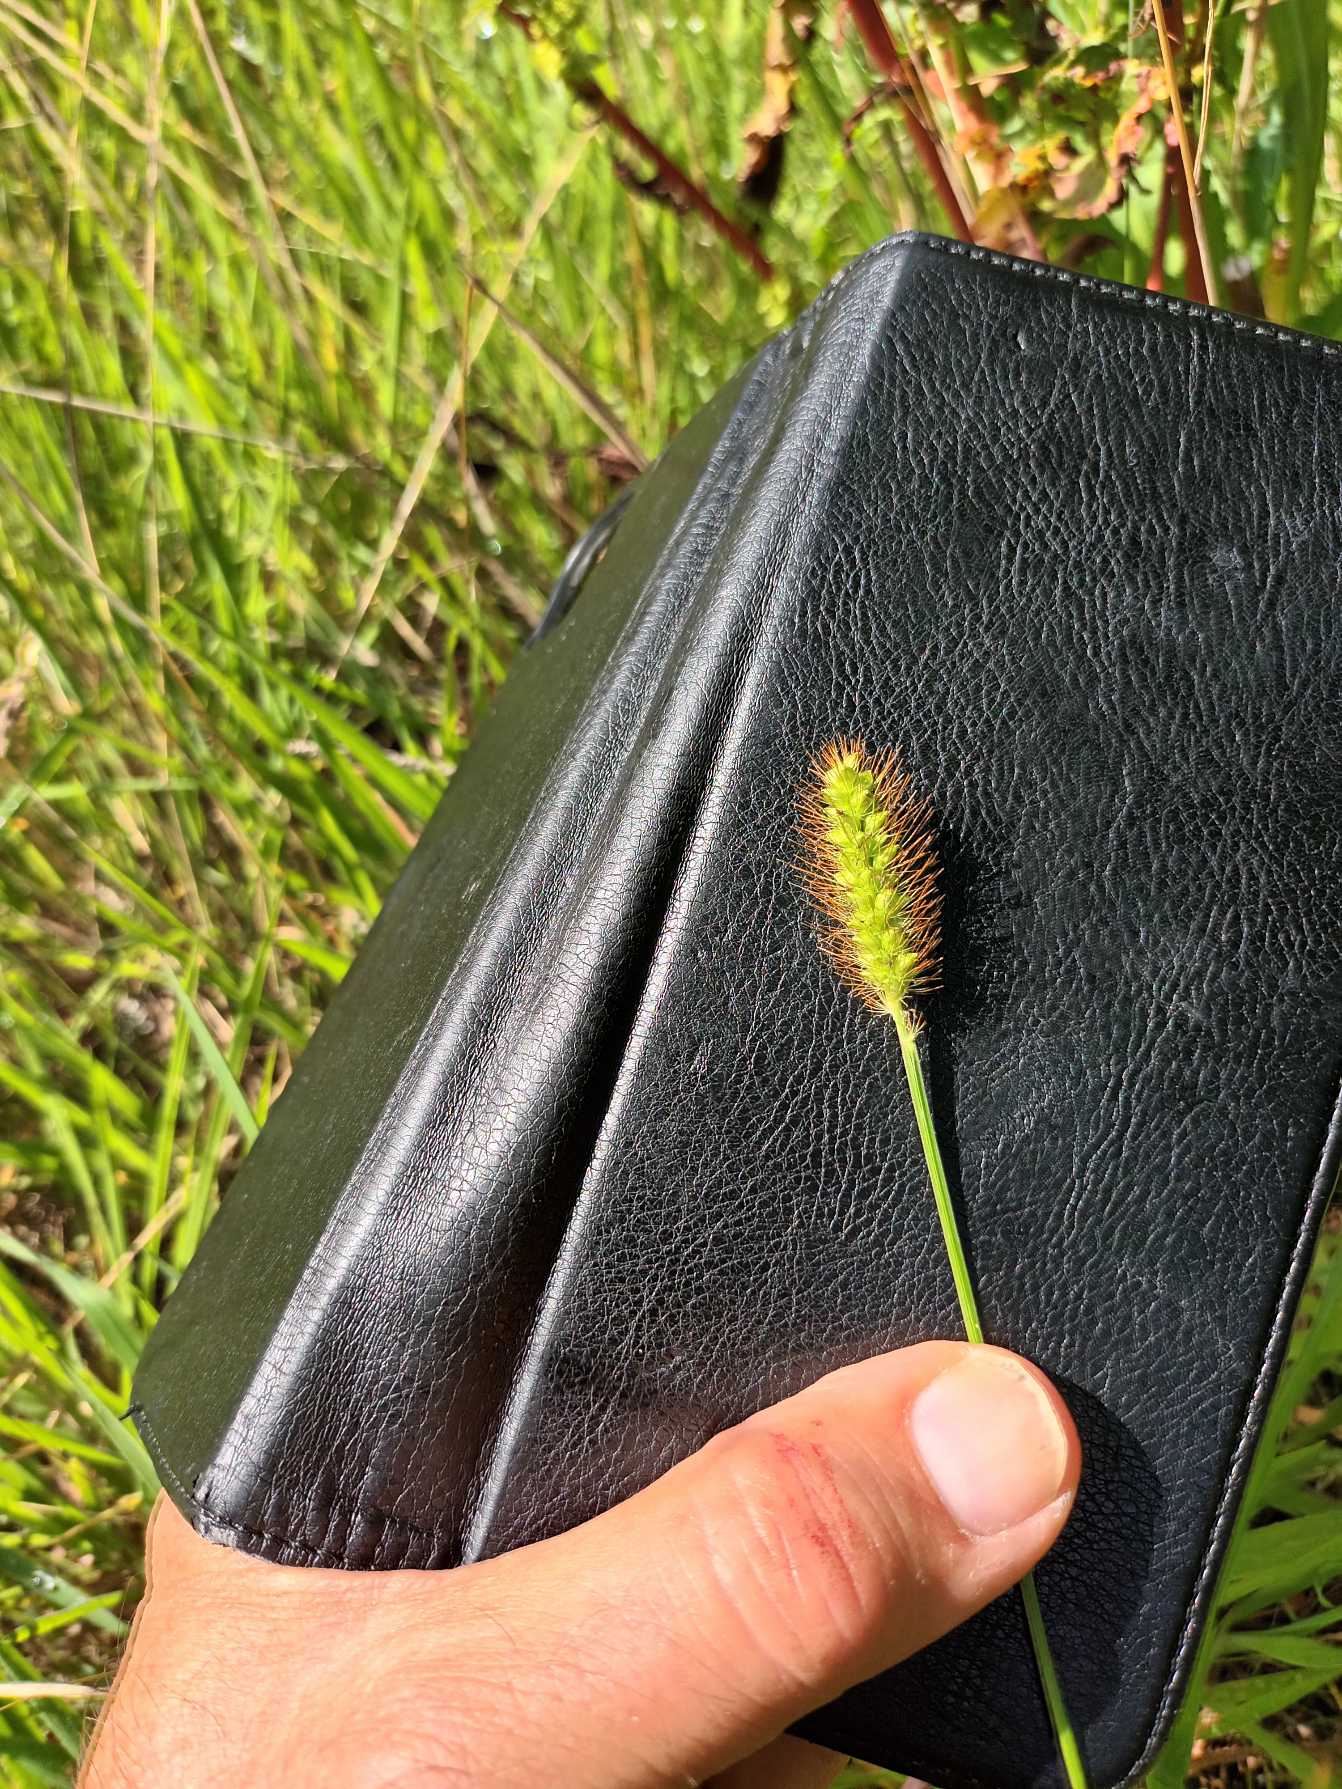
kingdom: Plantae
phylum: Tracheophyta
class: Liliopsida
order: Poales
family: Poaceae
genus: Setaria
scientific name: Setaria pumila
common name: Blågrøn skærmaks
